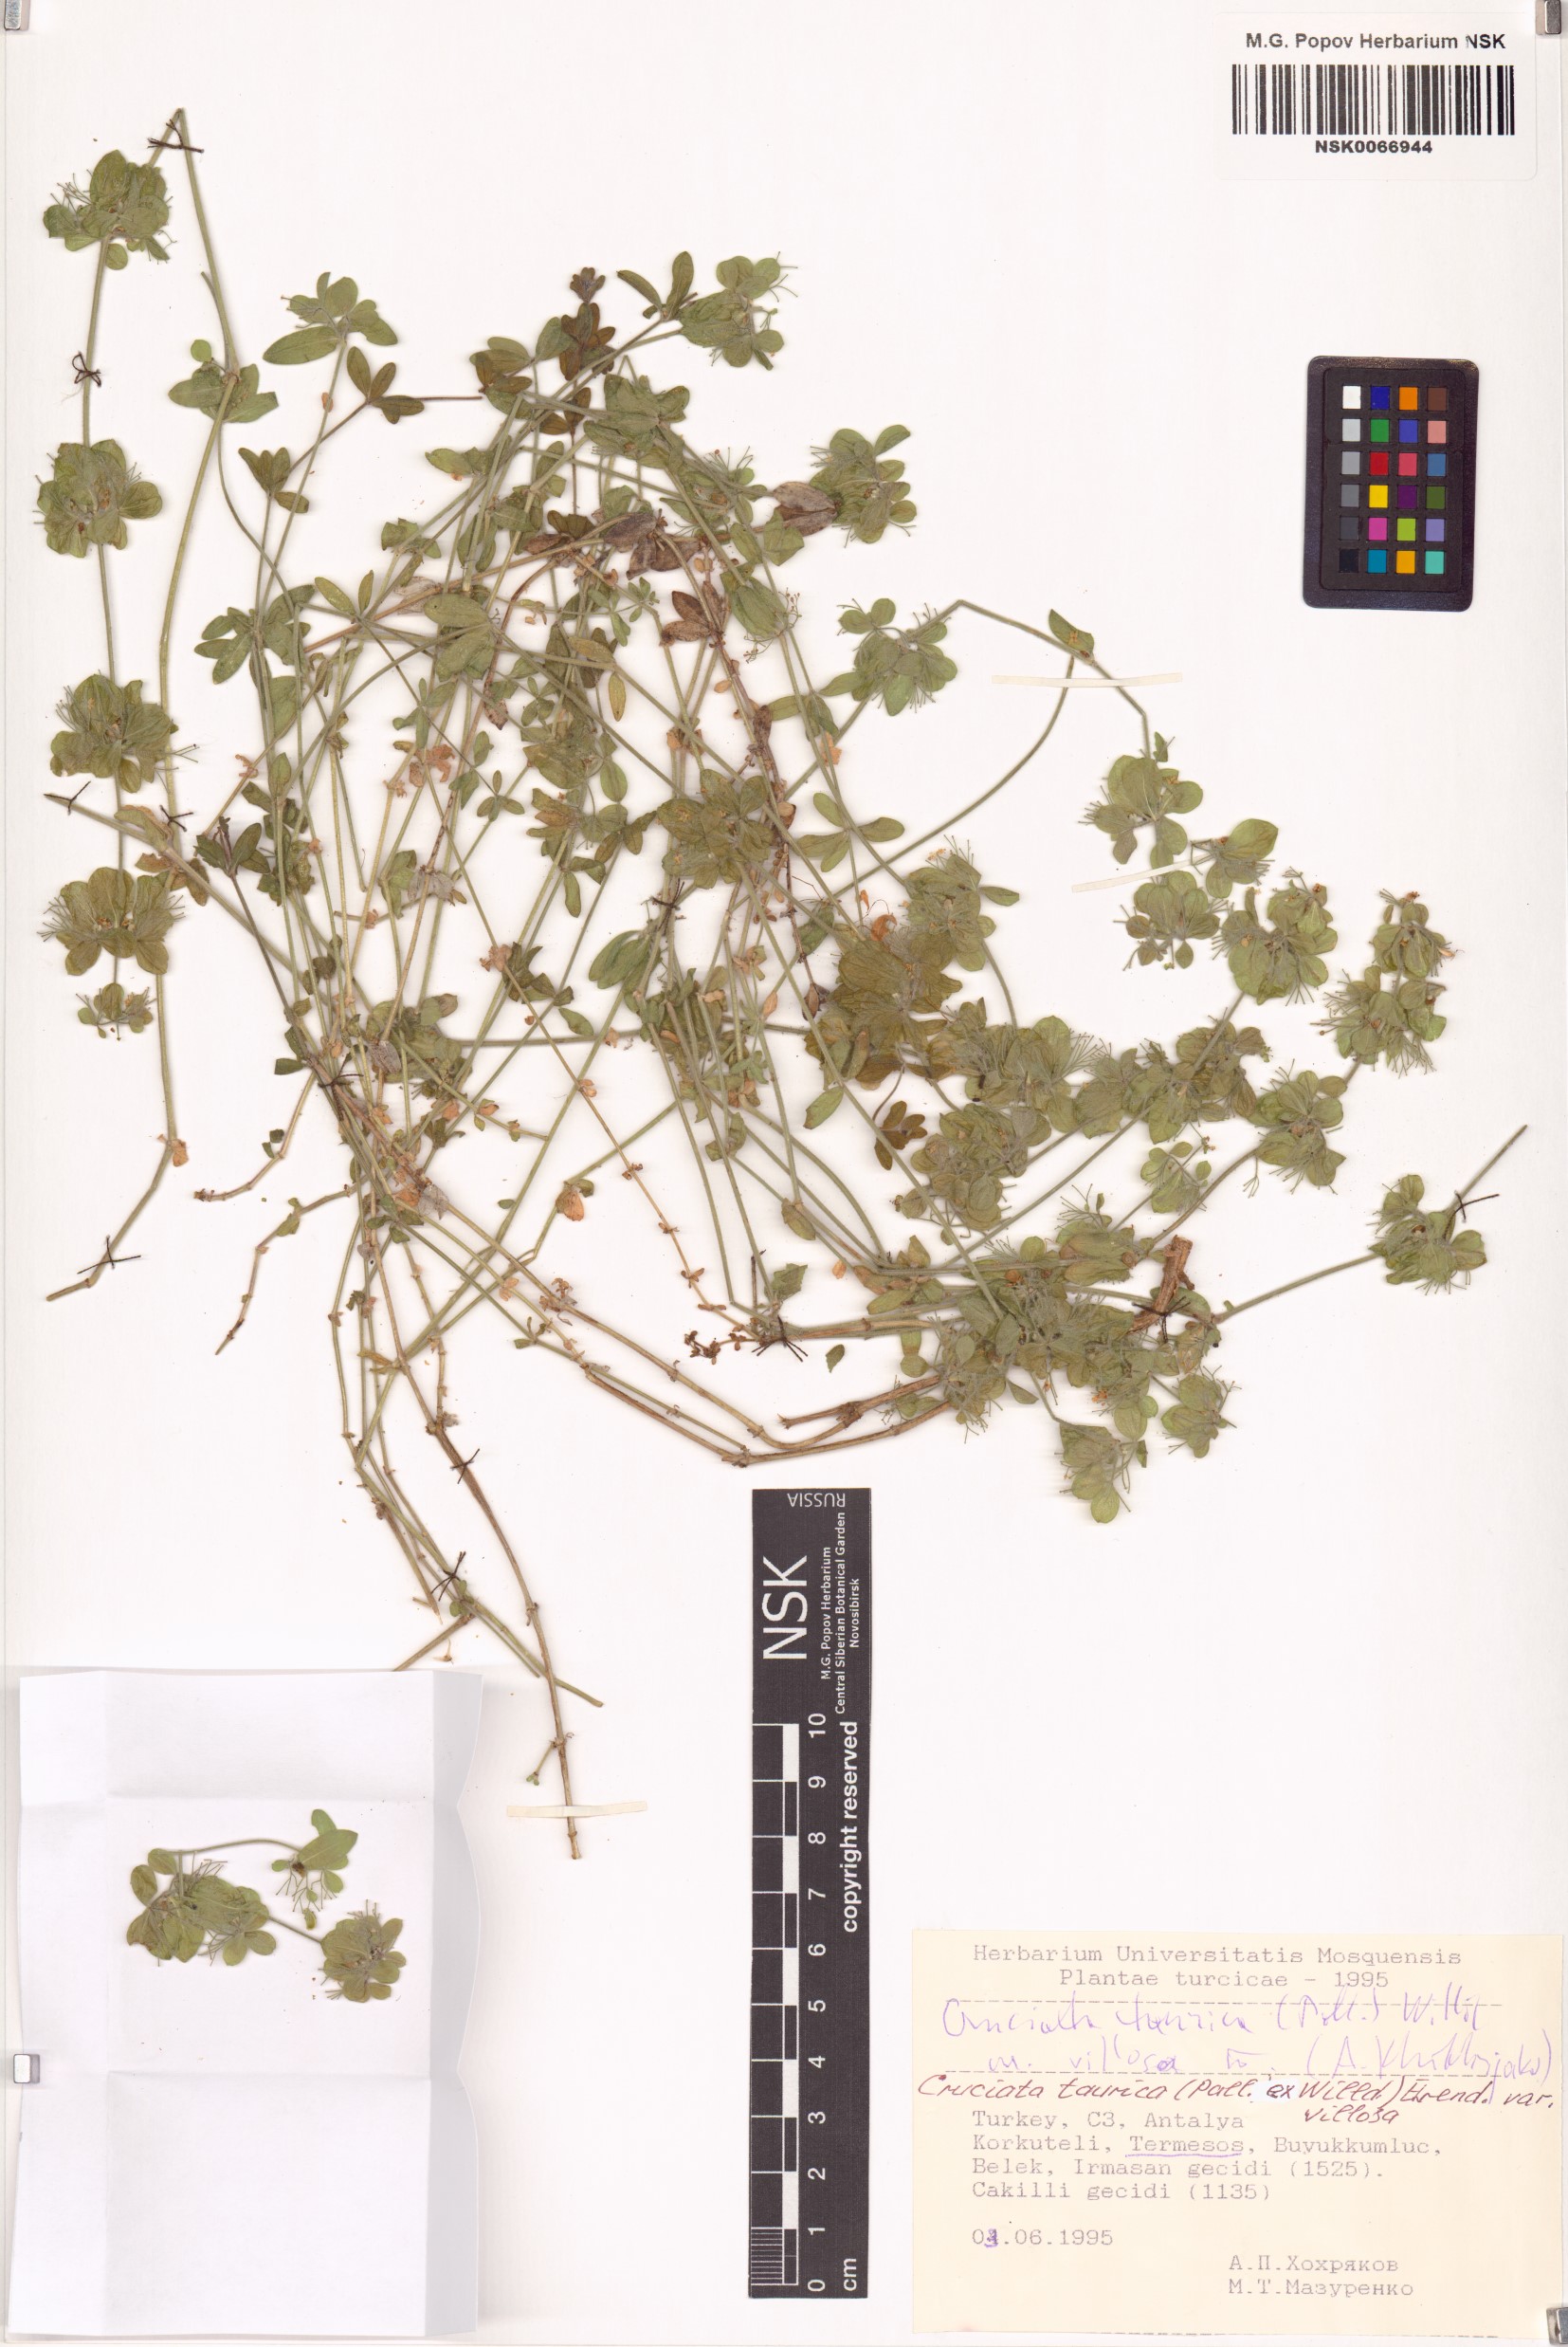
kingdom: Plantae
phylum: Tracheophyta
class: Magnoliopsida
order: Gentianales
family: Rubiaceae
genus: Cruciata
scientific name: Cruciata taurica
